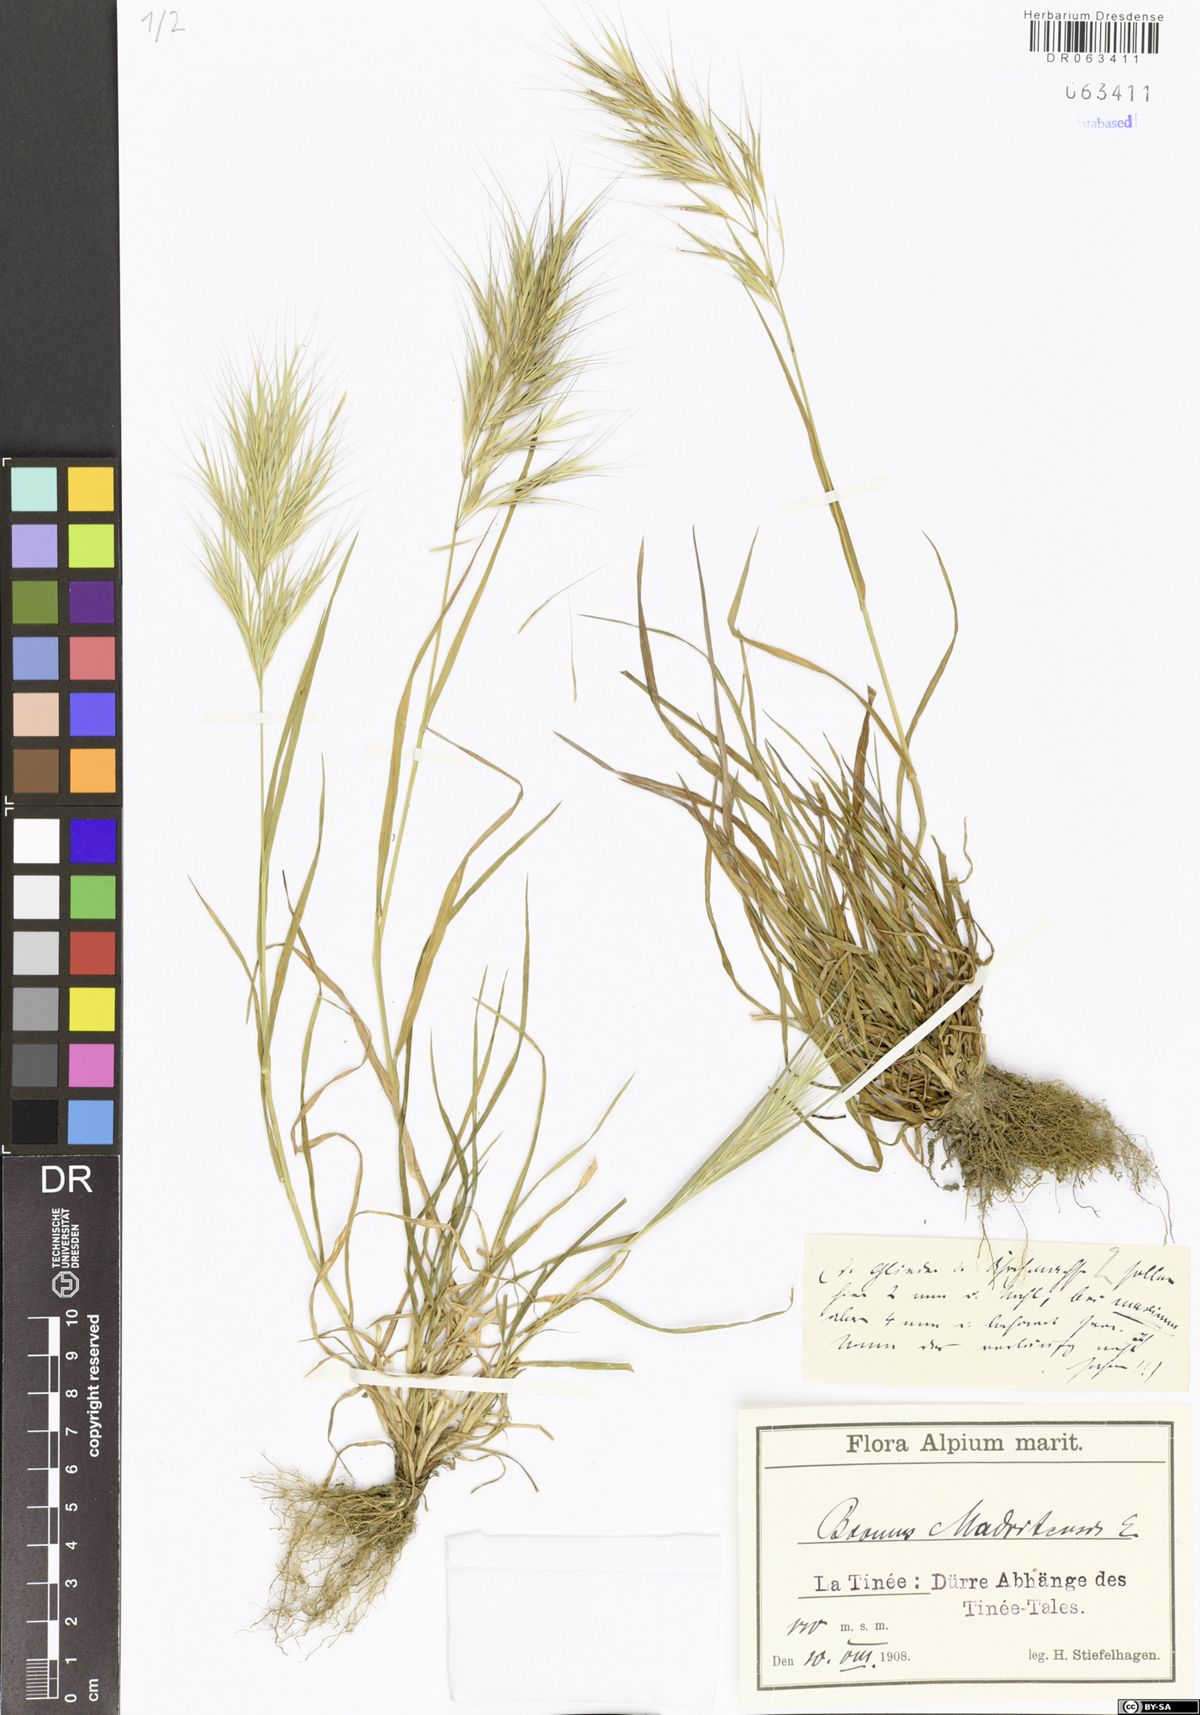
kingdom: Plantae
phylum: Tracheophyta
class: Liliopsida
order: Poales
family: Poaceae
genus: Bromus
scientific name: Bromus madritensis
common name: Compact brome
